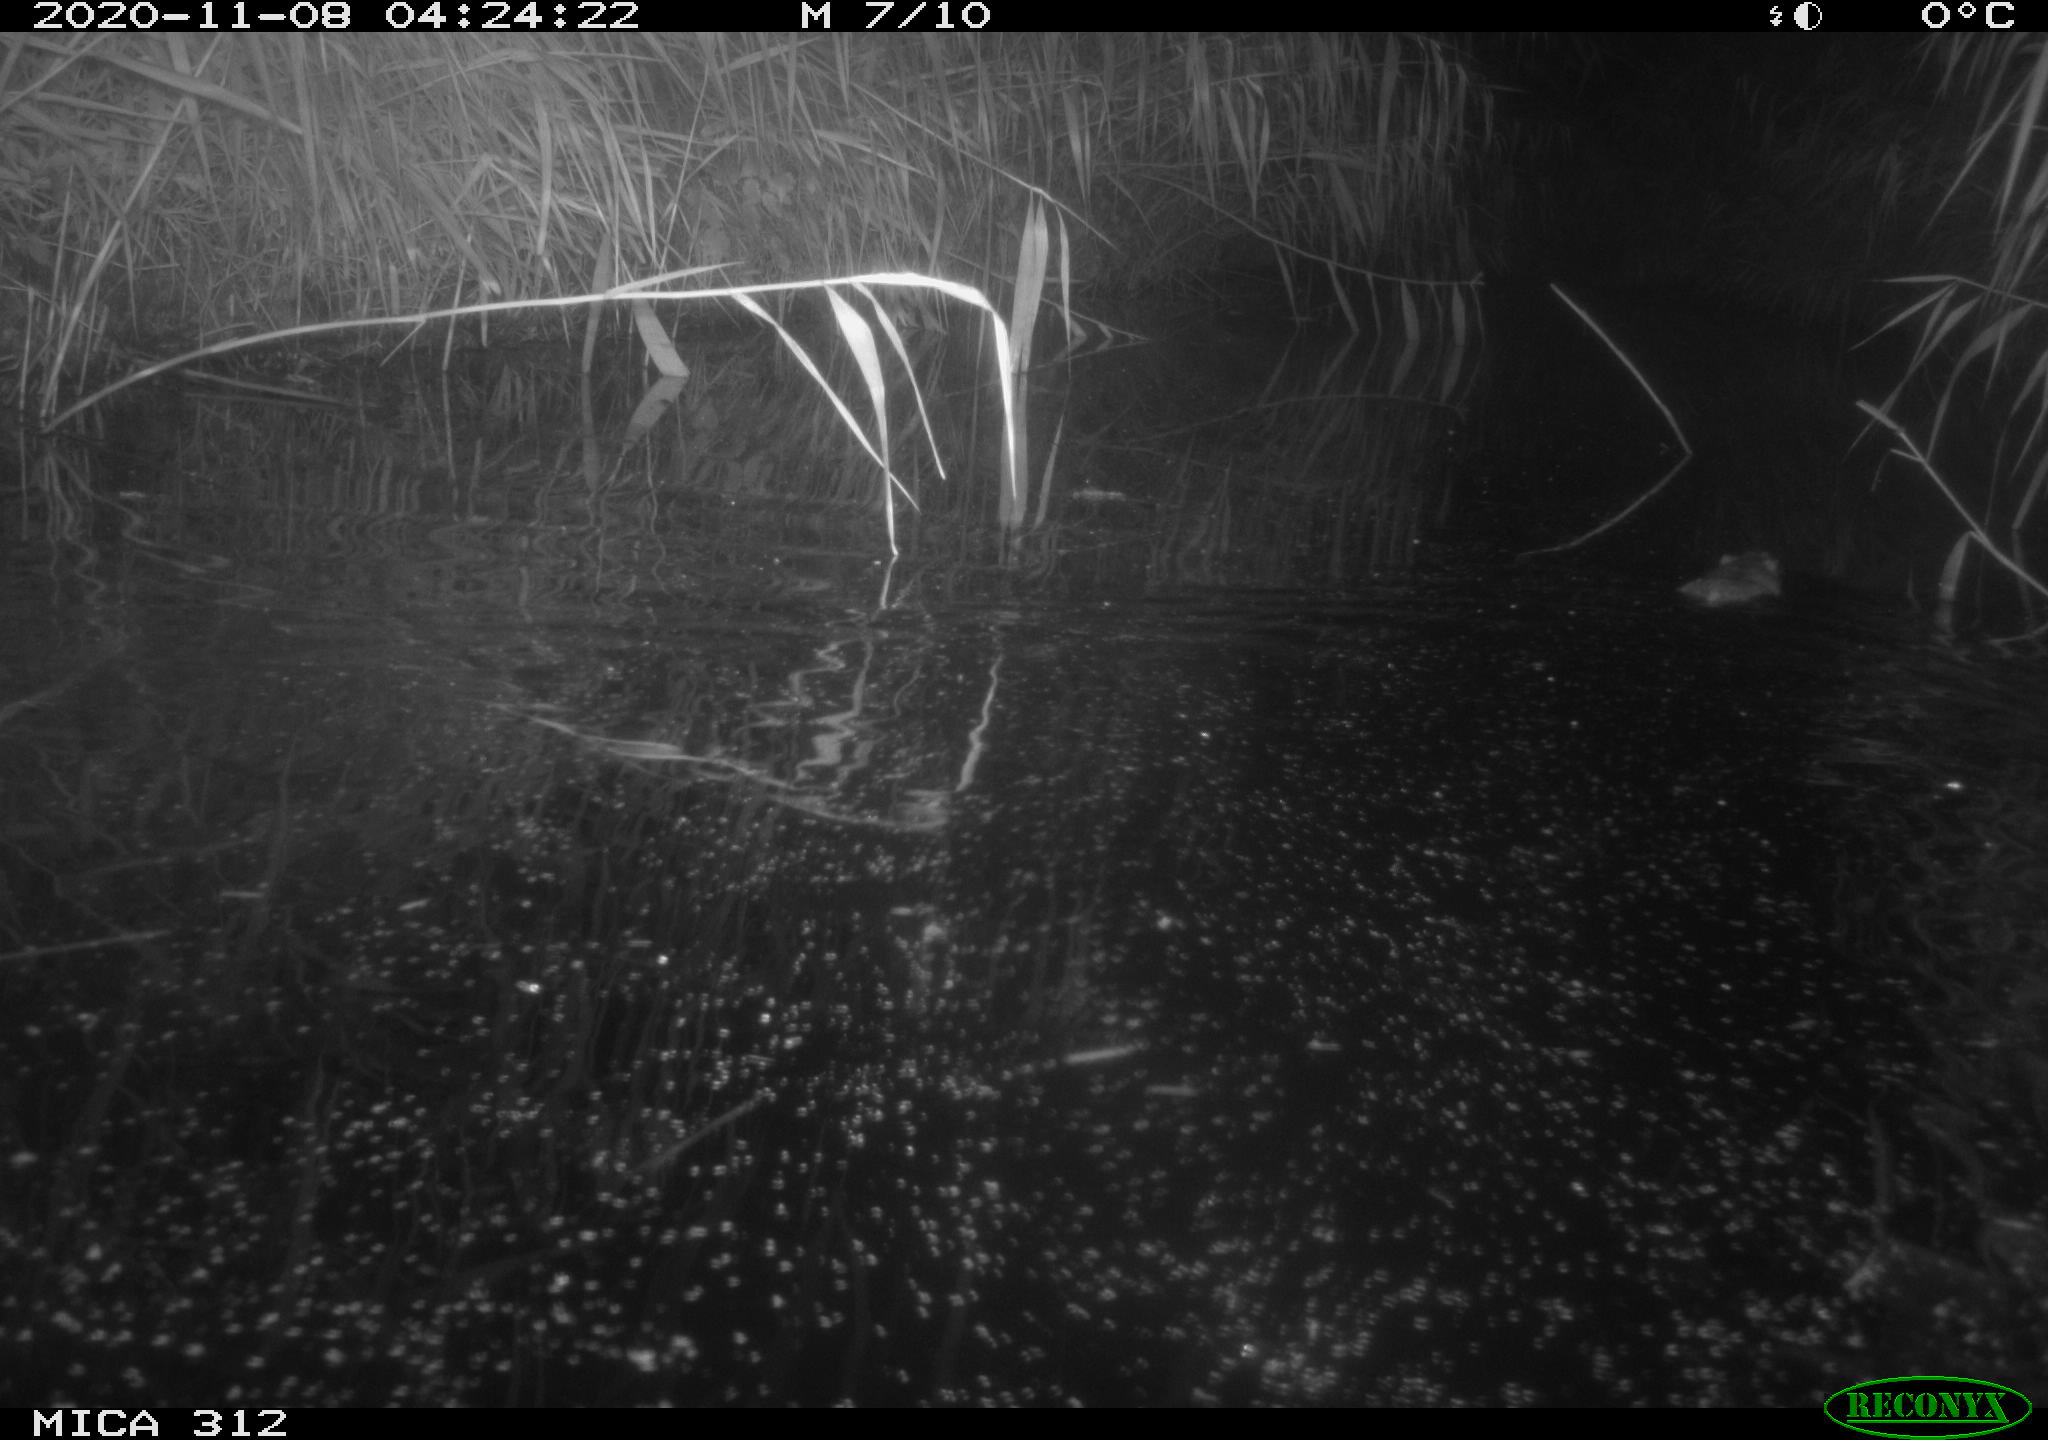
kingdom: Animalia
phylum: Chordata
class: Mammalia
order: Rodentia
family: Muridae
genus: Rattus
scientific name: Rattus norvegicus
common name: Brown rat
